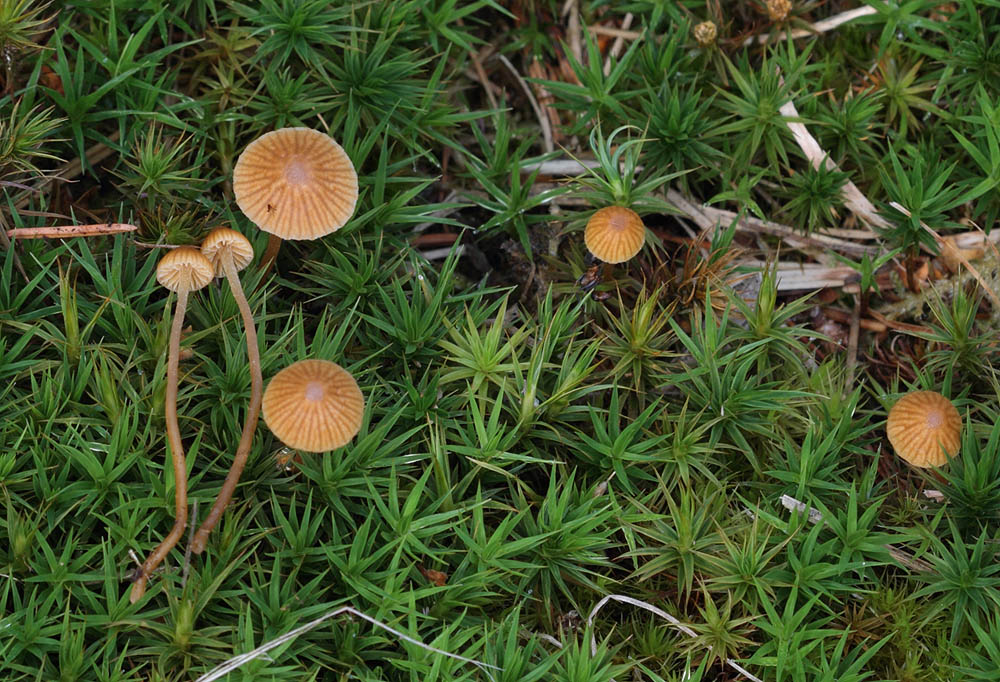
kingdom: Fungi
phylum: Basidiomycota
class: Agaricomycetes
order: Agaricales
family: Hymenogastraceae
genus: Galerina
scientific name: Galerina hypnorum
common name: mos-hjelmhat
